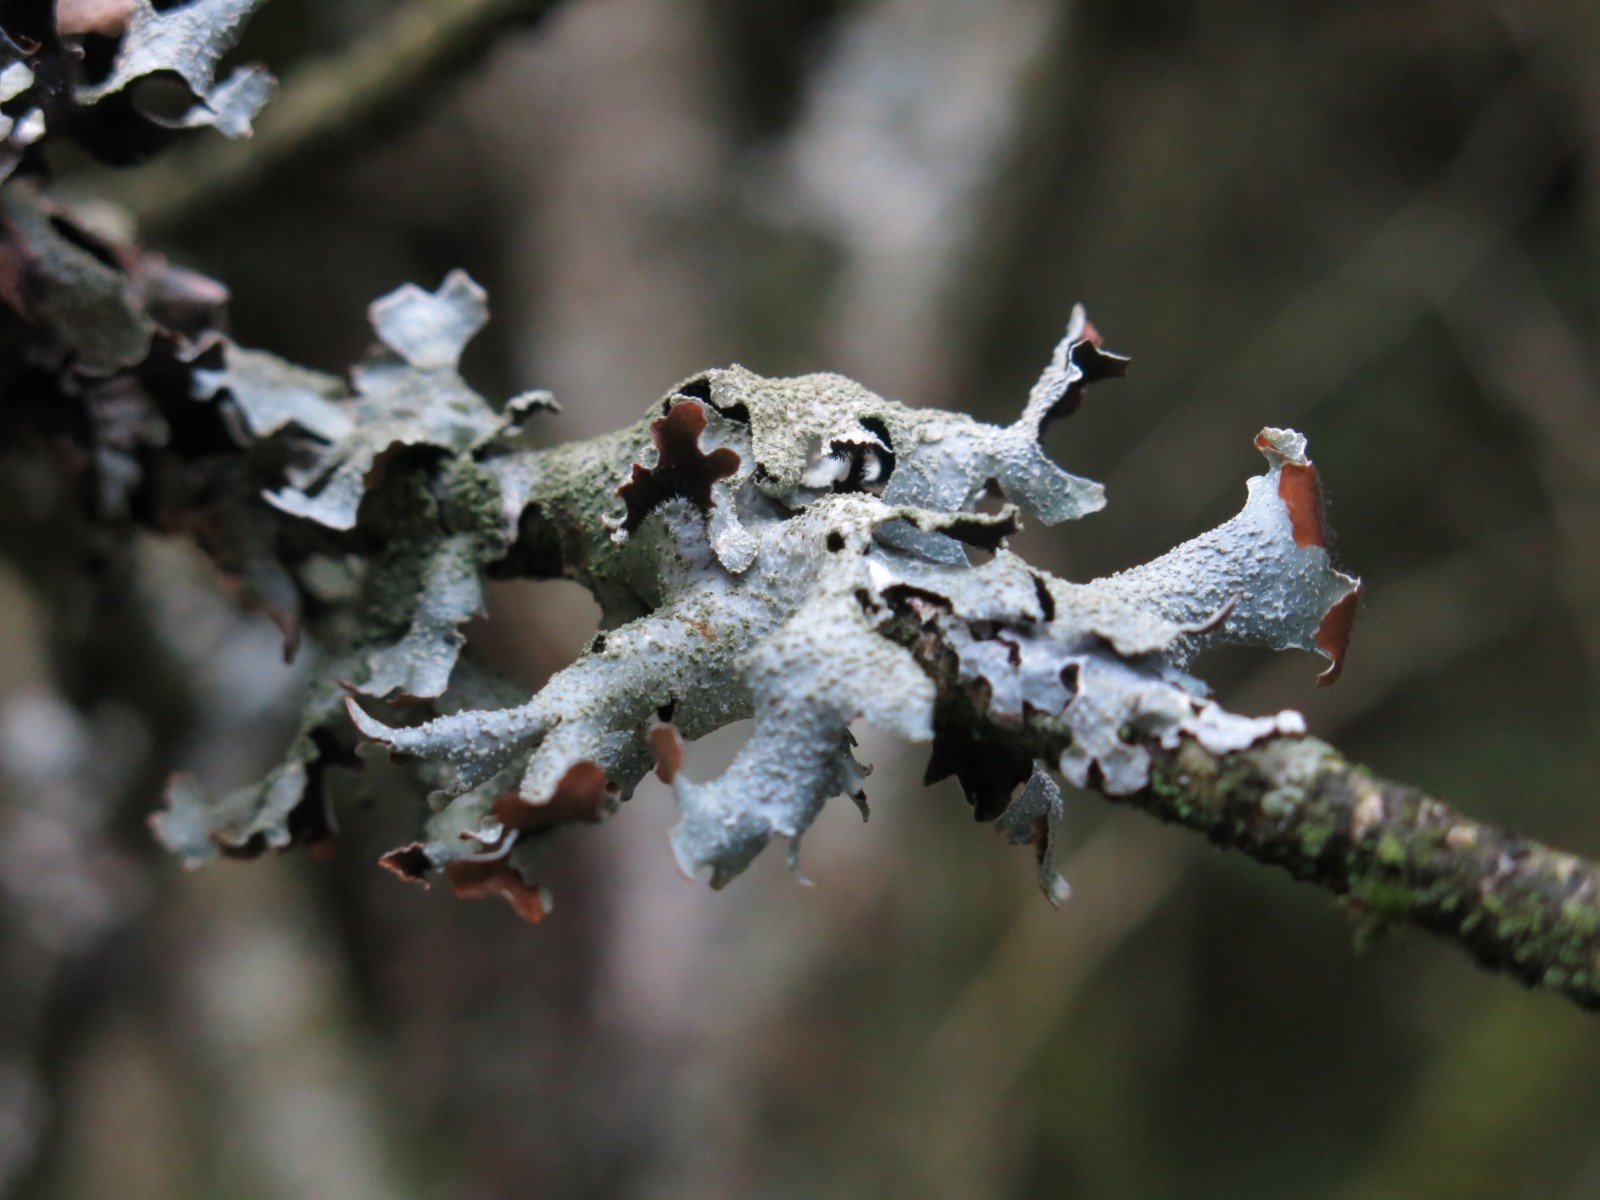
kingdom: Fungi
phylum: Ascomycota
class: Lecanoromycetes
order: Lecanorales
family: Parmeliaceae
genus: Parmelia
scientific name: Parmelia submontana
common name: langlobet skållav
